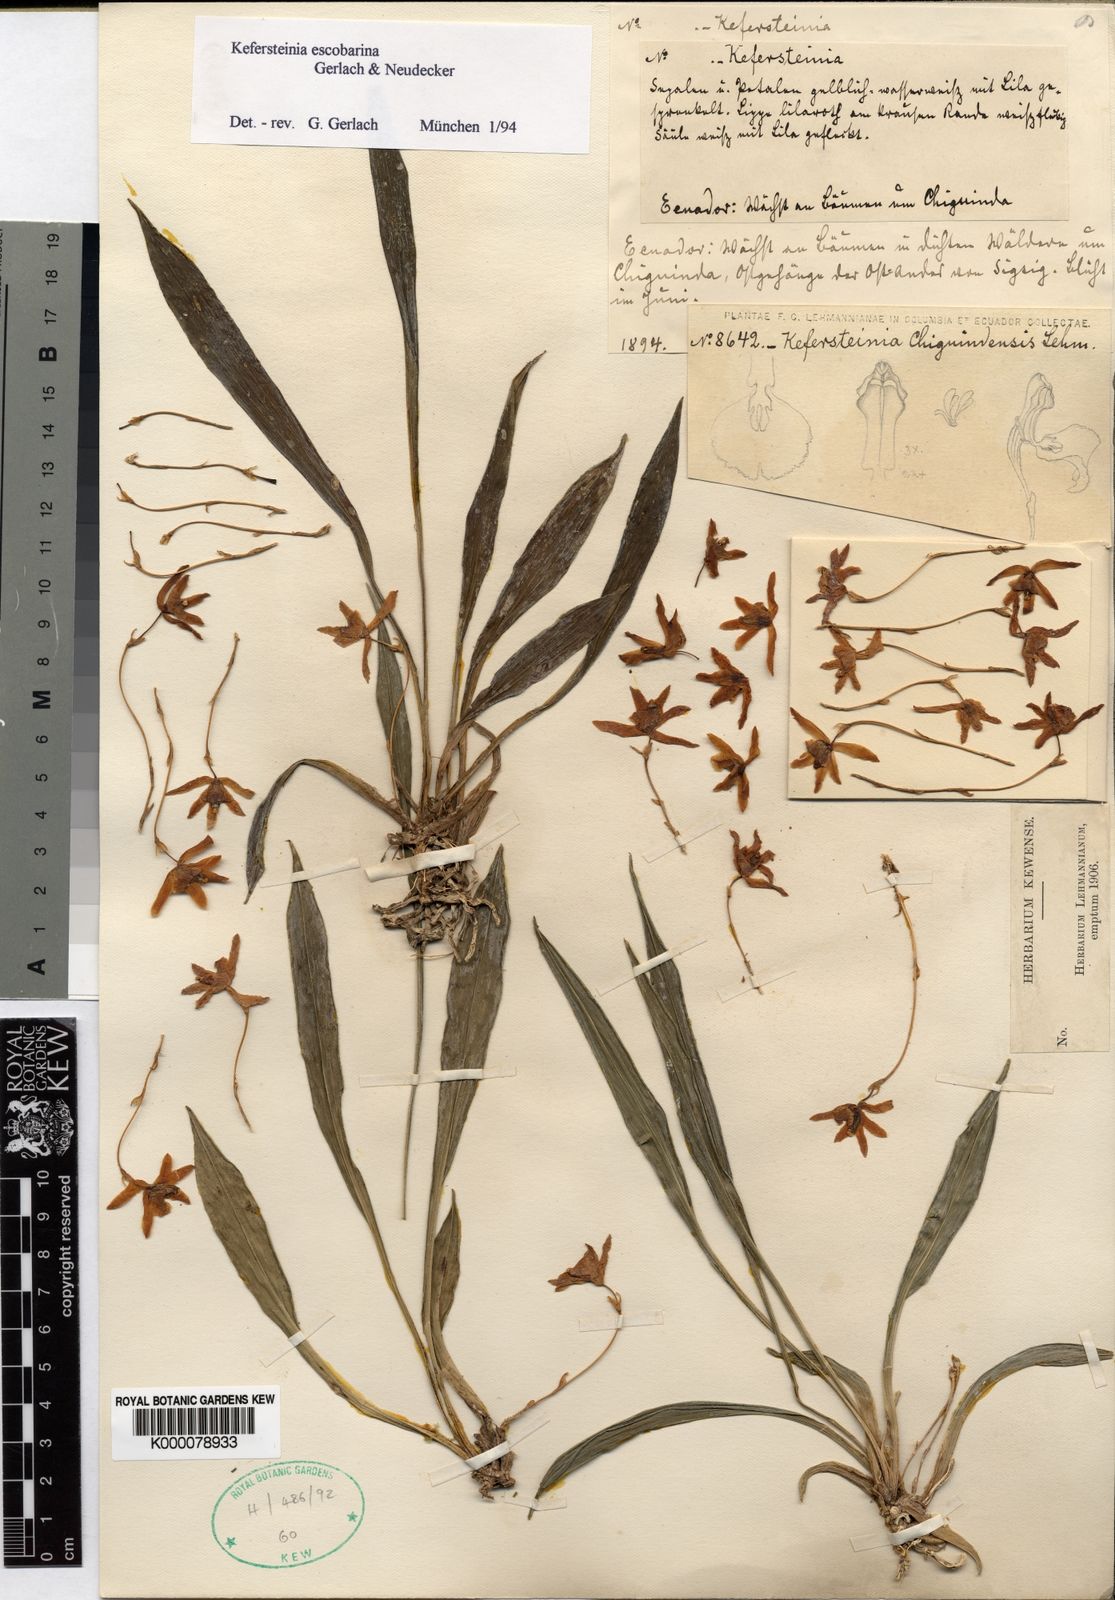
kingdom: Plantae
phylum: Tracheophyta
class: Liliopsida
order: Asparagales
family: Orchidaceae
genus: Kefersteinia
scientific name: Kefersteinia
